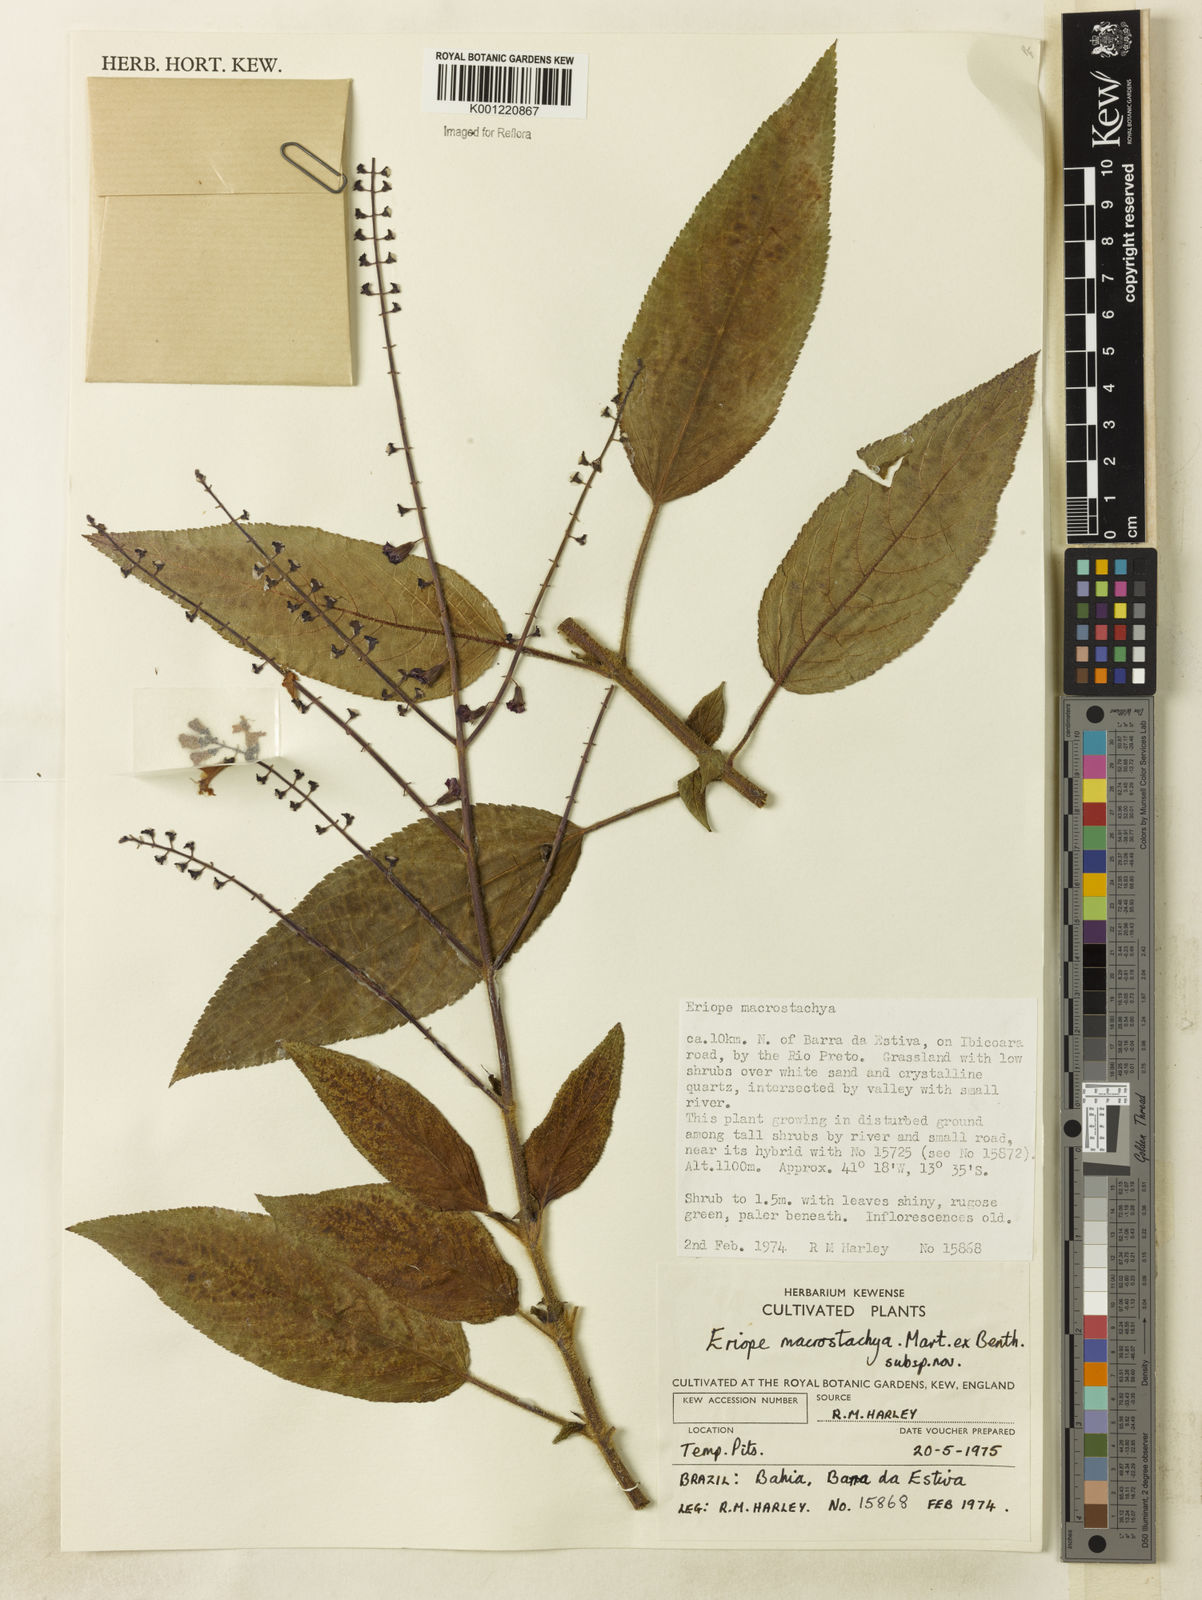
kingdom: Plantae
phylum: Tracheophyta
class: Magnoliopsida
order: Lamiales
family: Lamiaceae
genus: Eriope
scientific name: Eriope macrostachya
